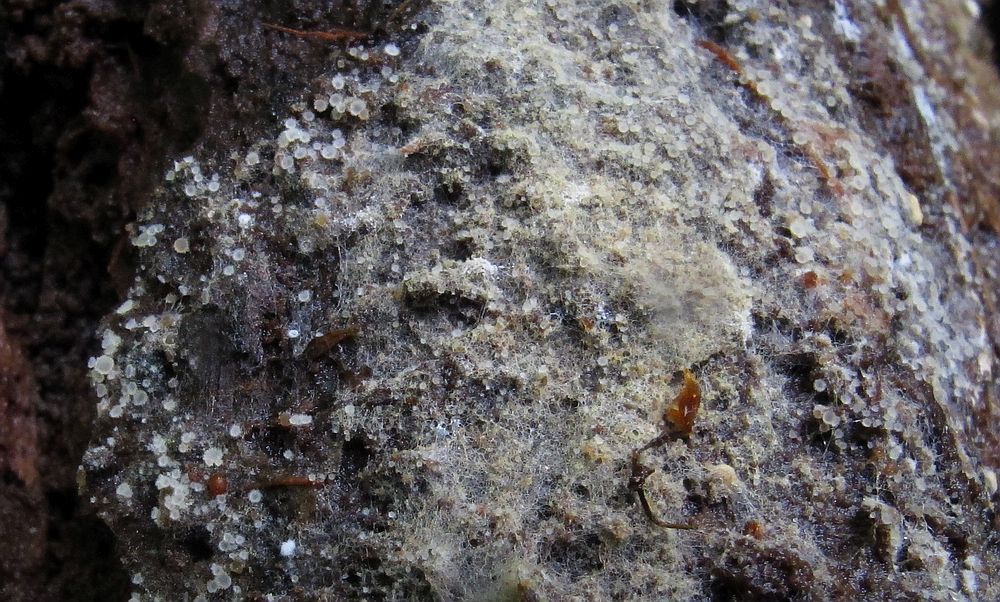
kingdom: Fungi
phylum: Ascomycota
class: Leotiomycetes
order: Helotiales
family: Arachnopezizaceae
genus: Arachnopeziza
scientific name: Arachnopeziza aurata
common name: bleggul spindskive
